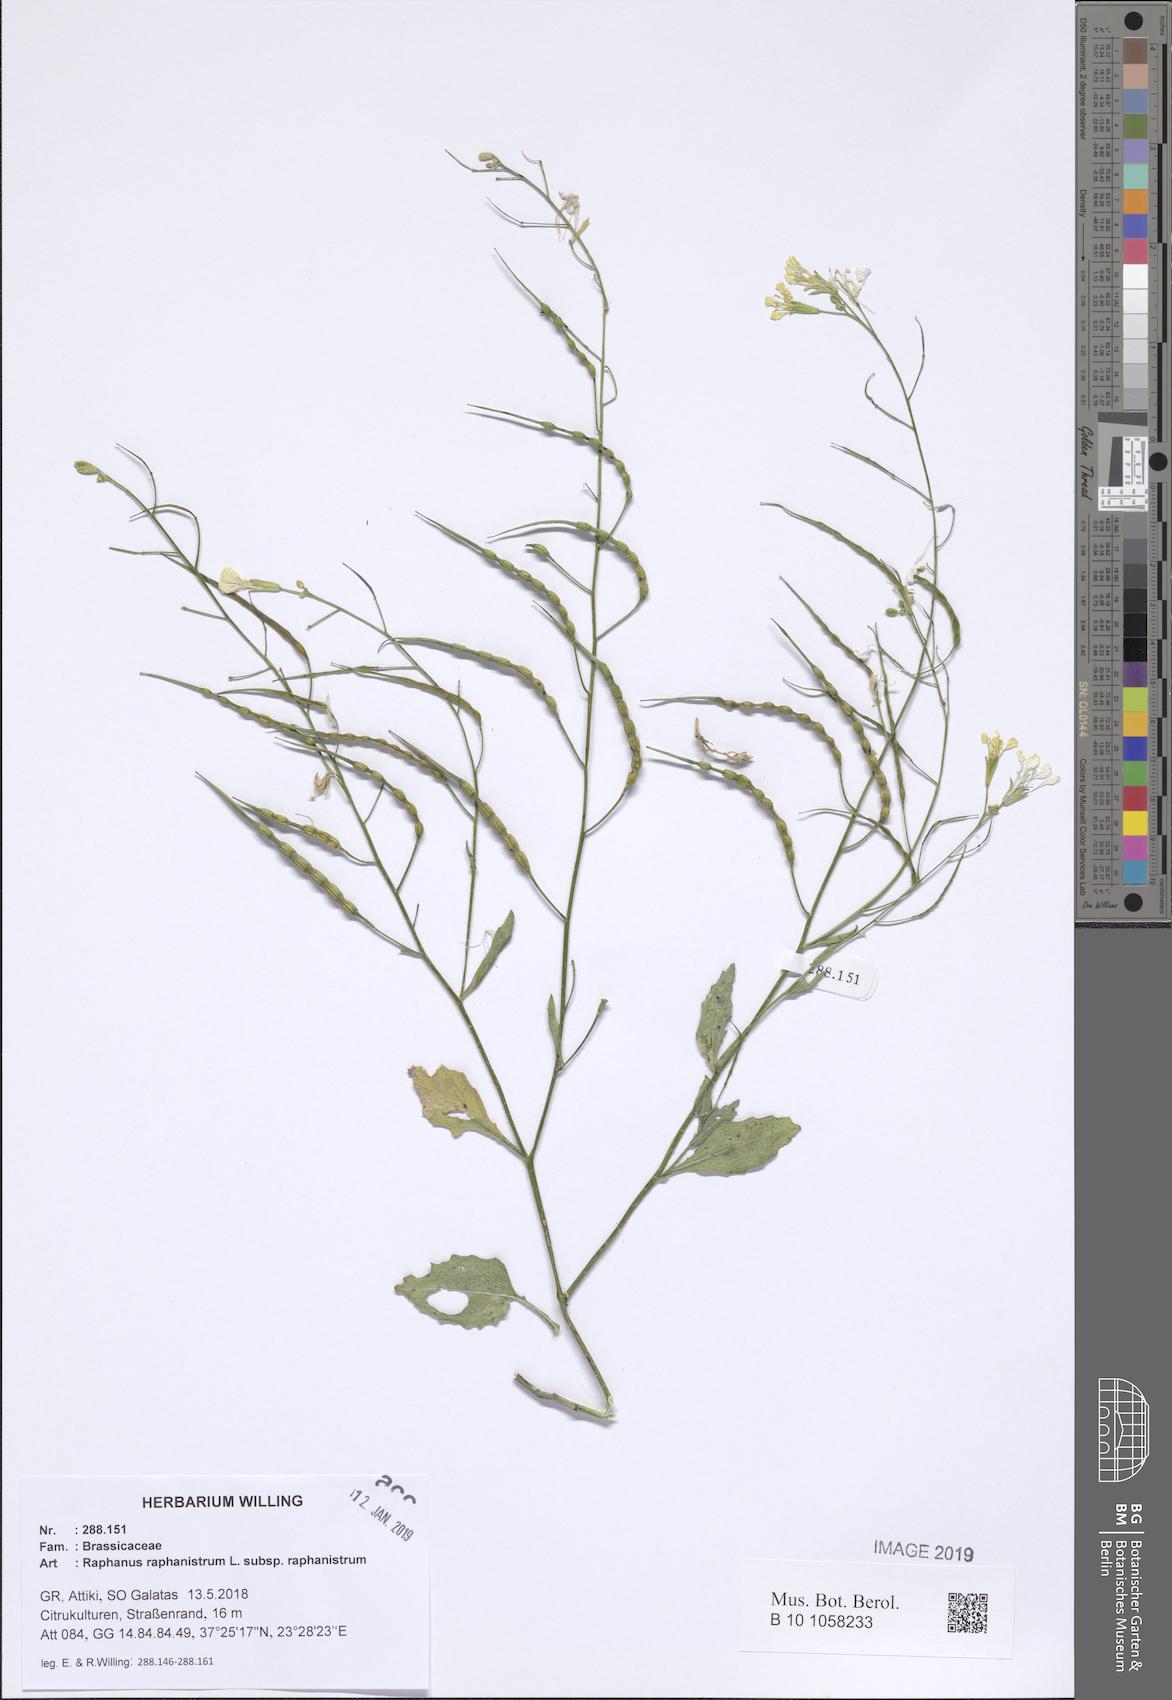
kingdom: Plantae
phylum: Tracheophyta
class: Magnoliopsida
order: Brassicales
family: Brassicaceae
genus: Raphanus
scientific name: Raphanus raphanistrum
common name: Wild radish
